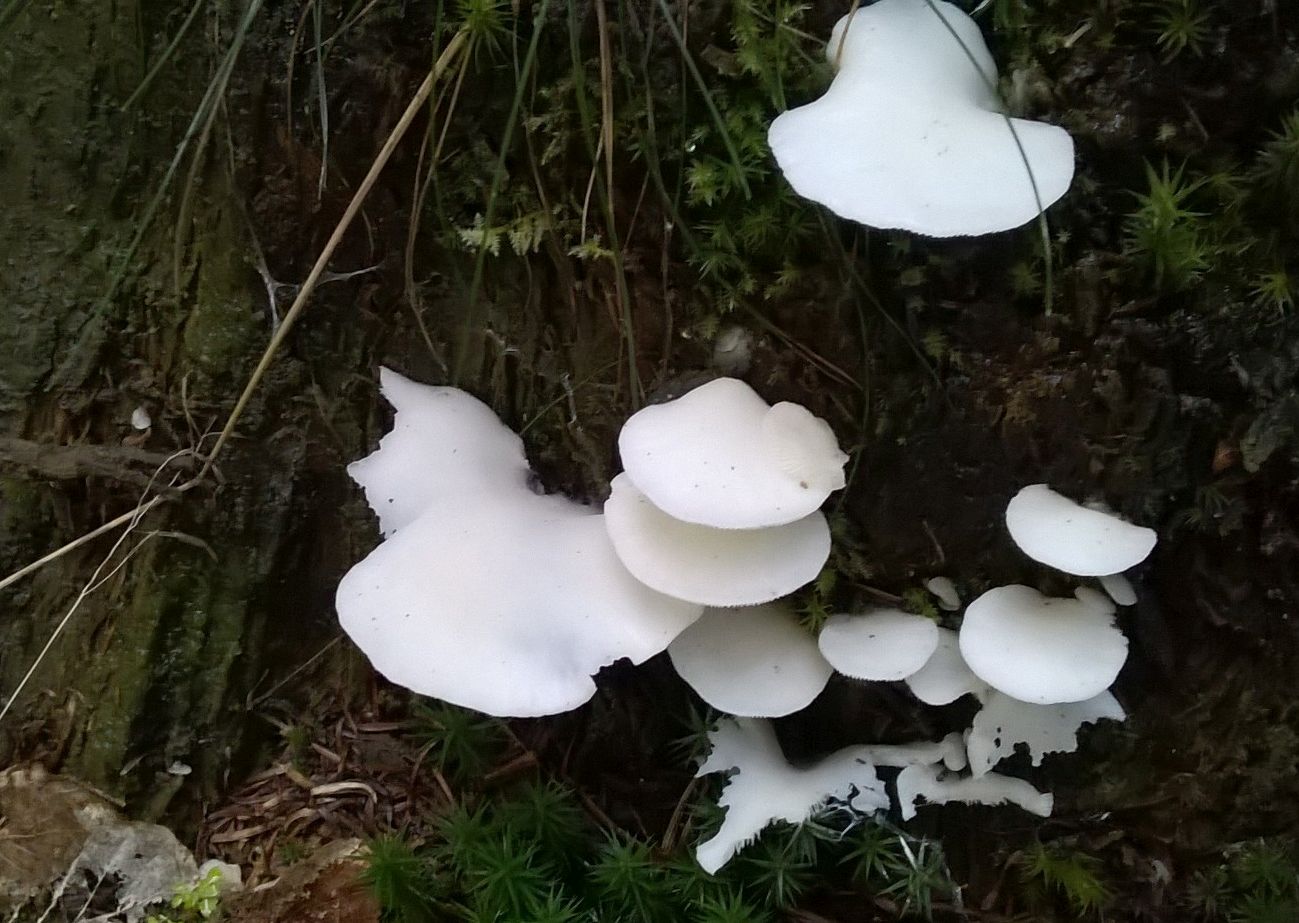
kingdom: Fungi
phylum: Basidiomycota
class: Agaricomycetes
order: Agaricales
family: Marasmiaceae
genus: Pleurocybella
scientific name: Pleurocybella porrigens
